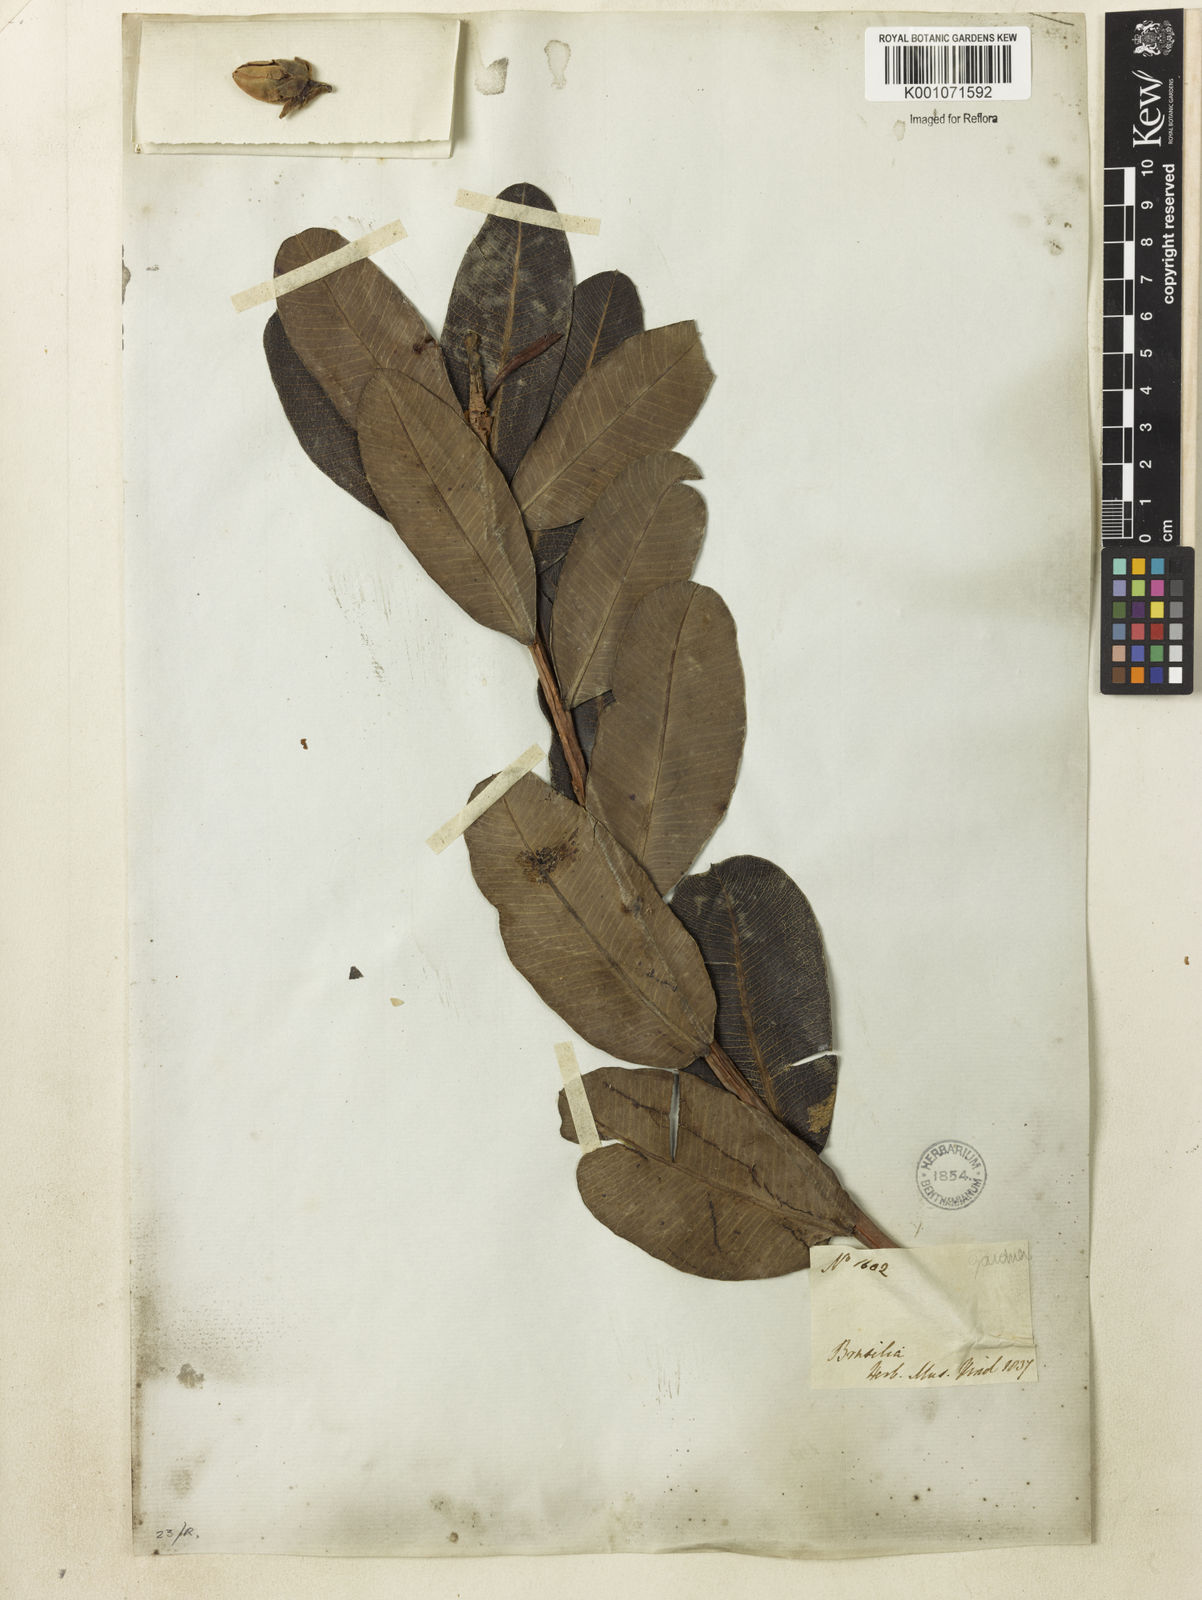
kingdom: Plantae
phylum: Tracheophyta
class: Magnoliopsida
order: Malpighiales
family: Calophyllaceae
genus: Kielmeyera
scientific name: Kielmeyera rubriflora
